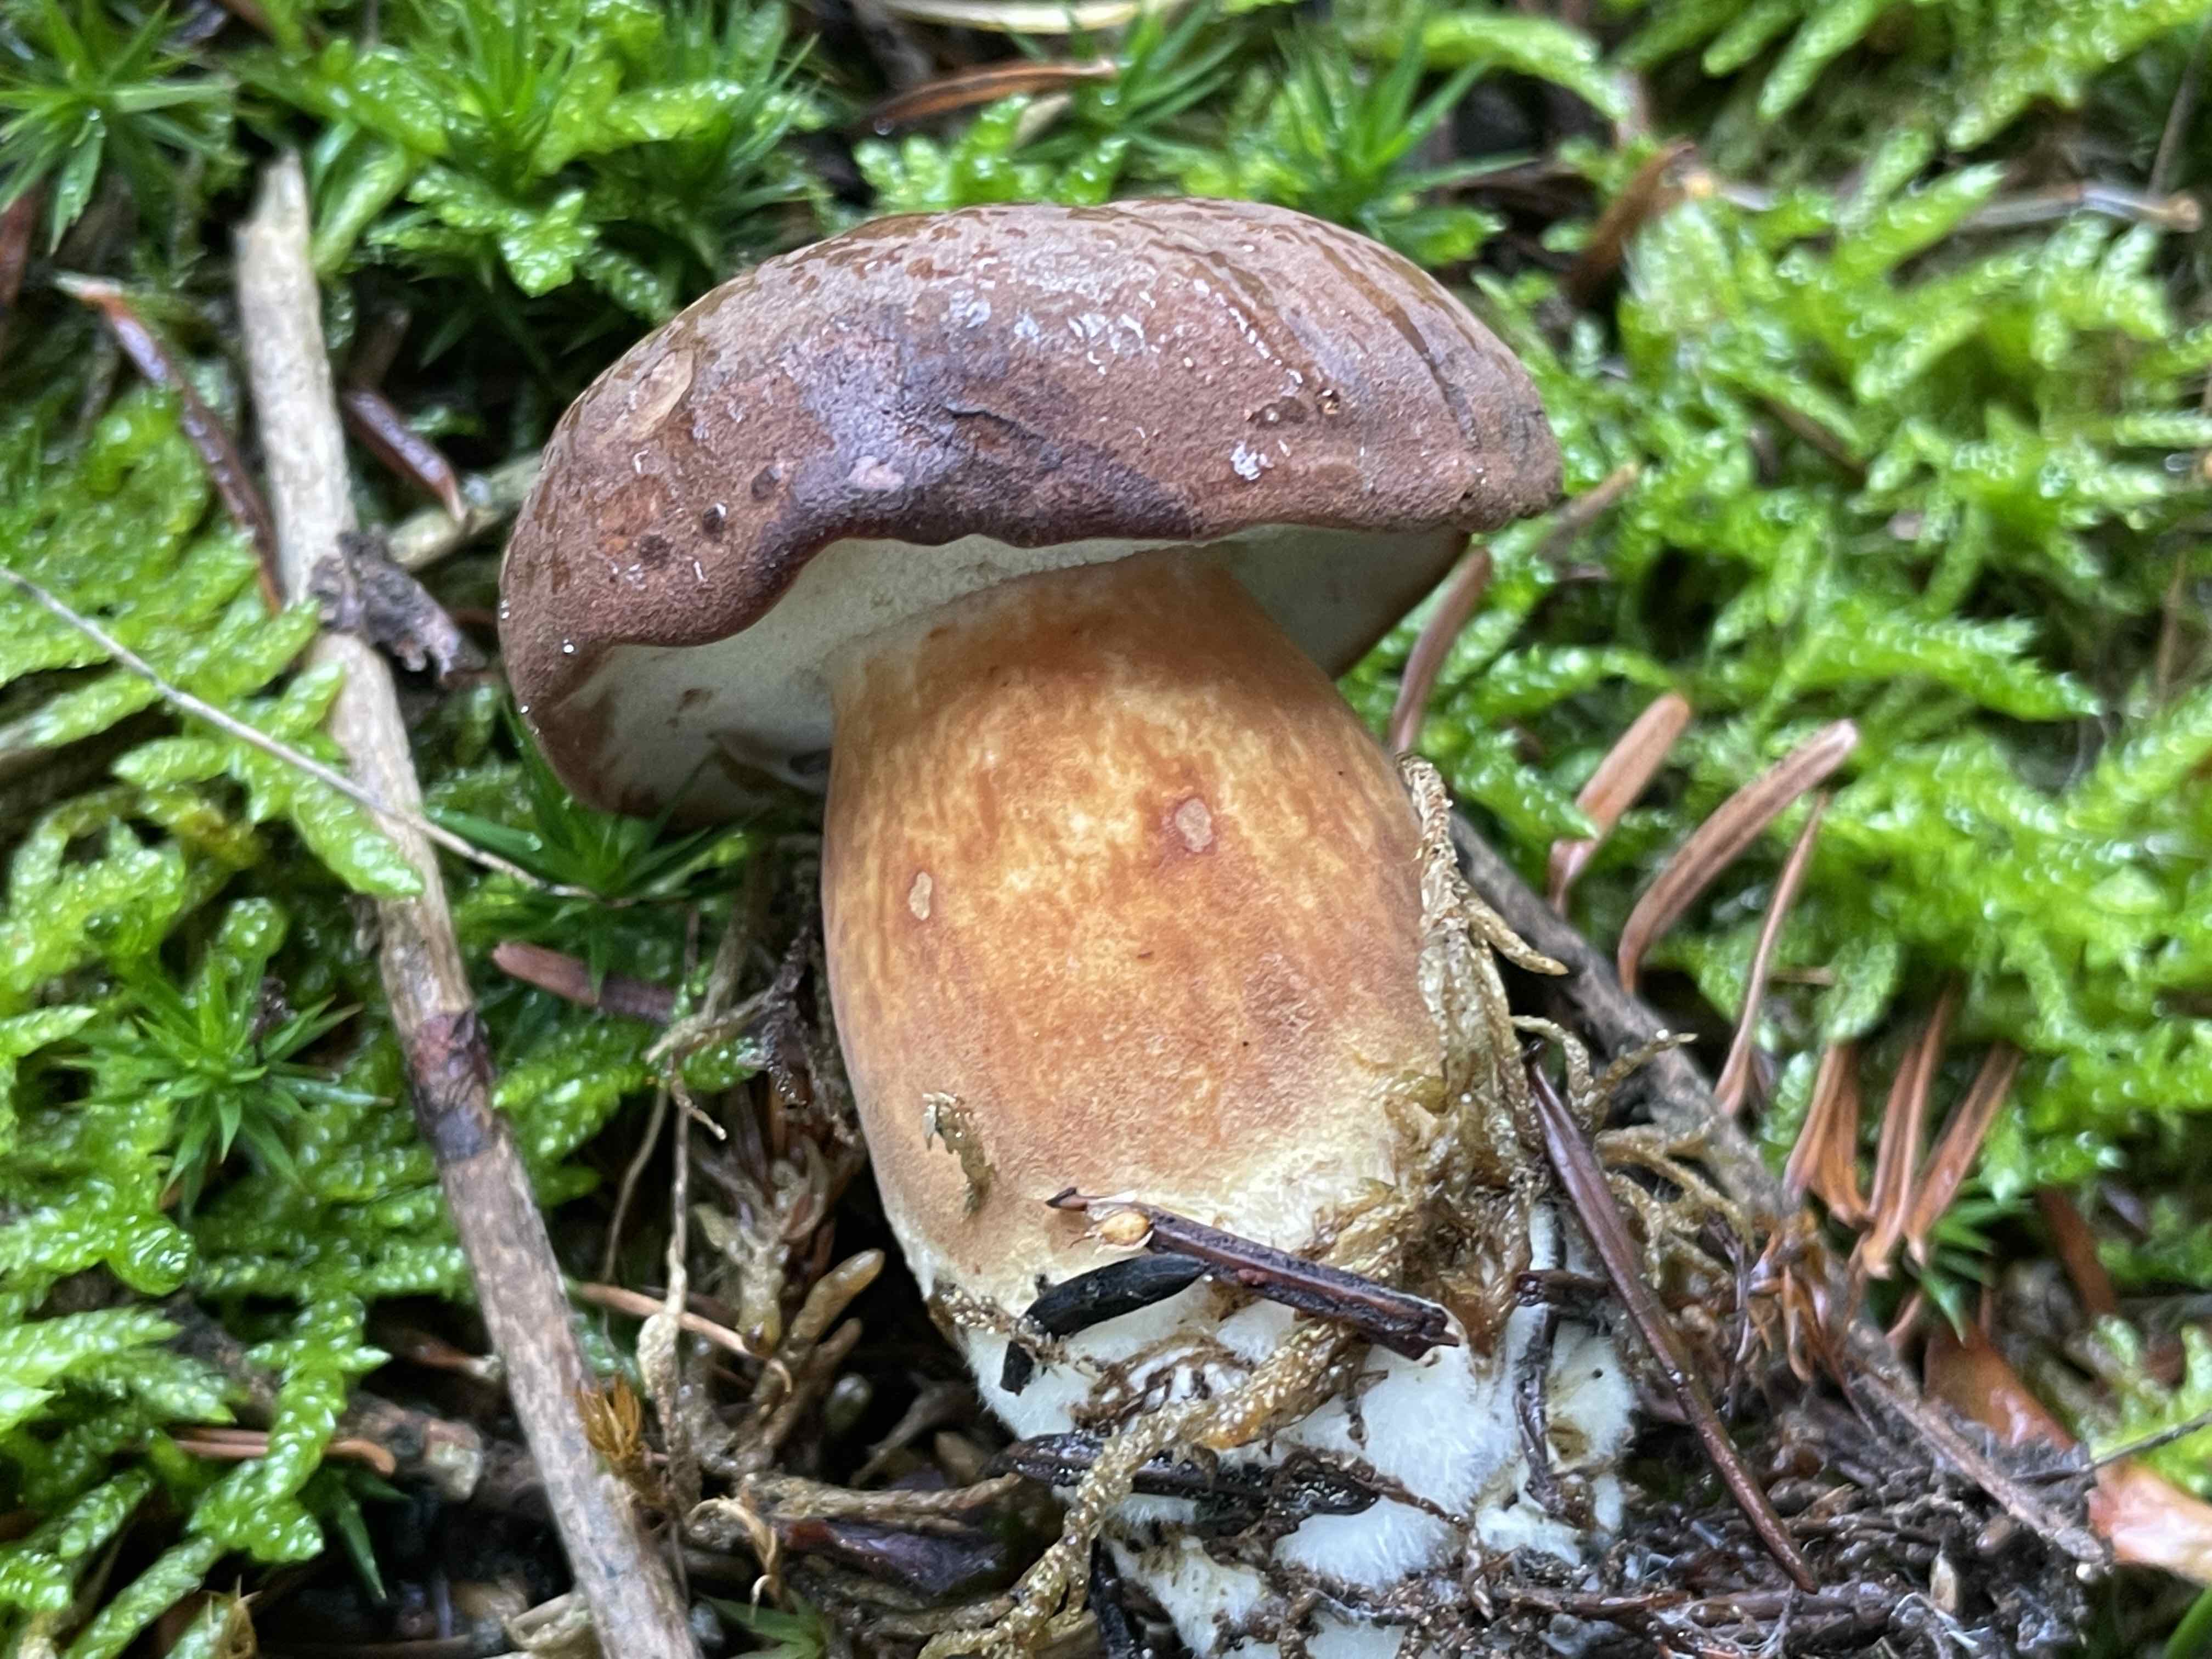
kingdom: Fungi
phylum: Basidiomycota
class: Agaricomycetes
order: Boletales
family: Boletaceae
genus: Imleria
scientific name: Imleria badia
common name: brunstokket rørhat
